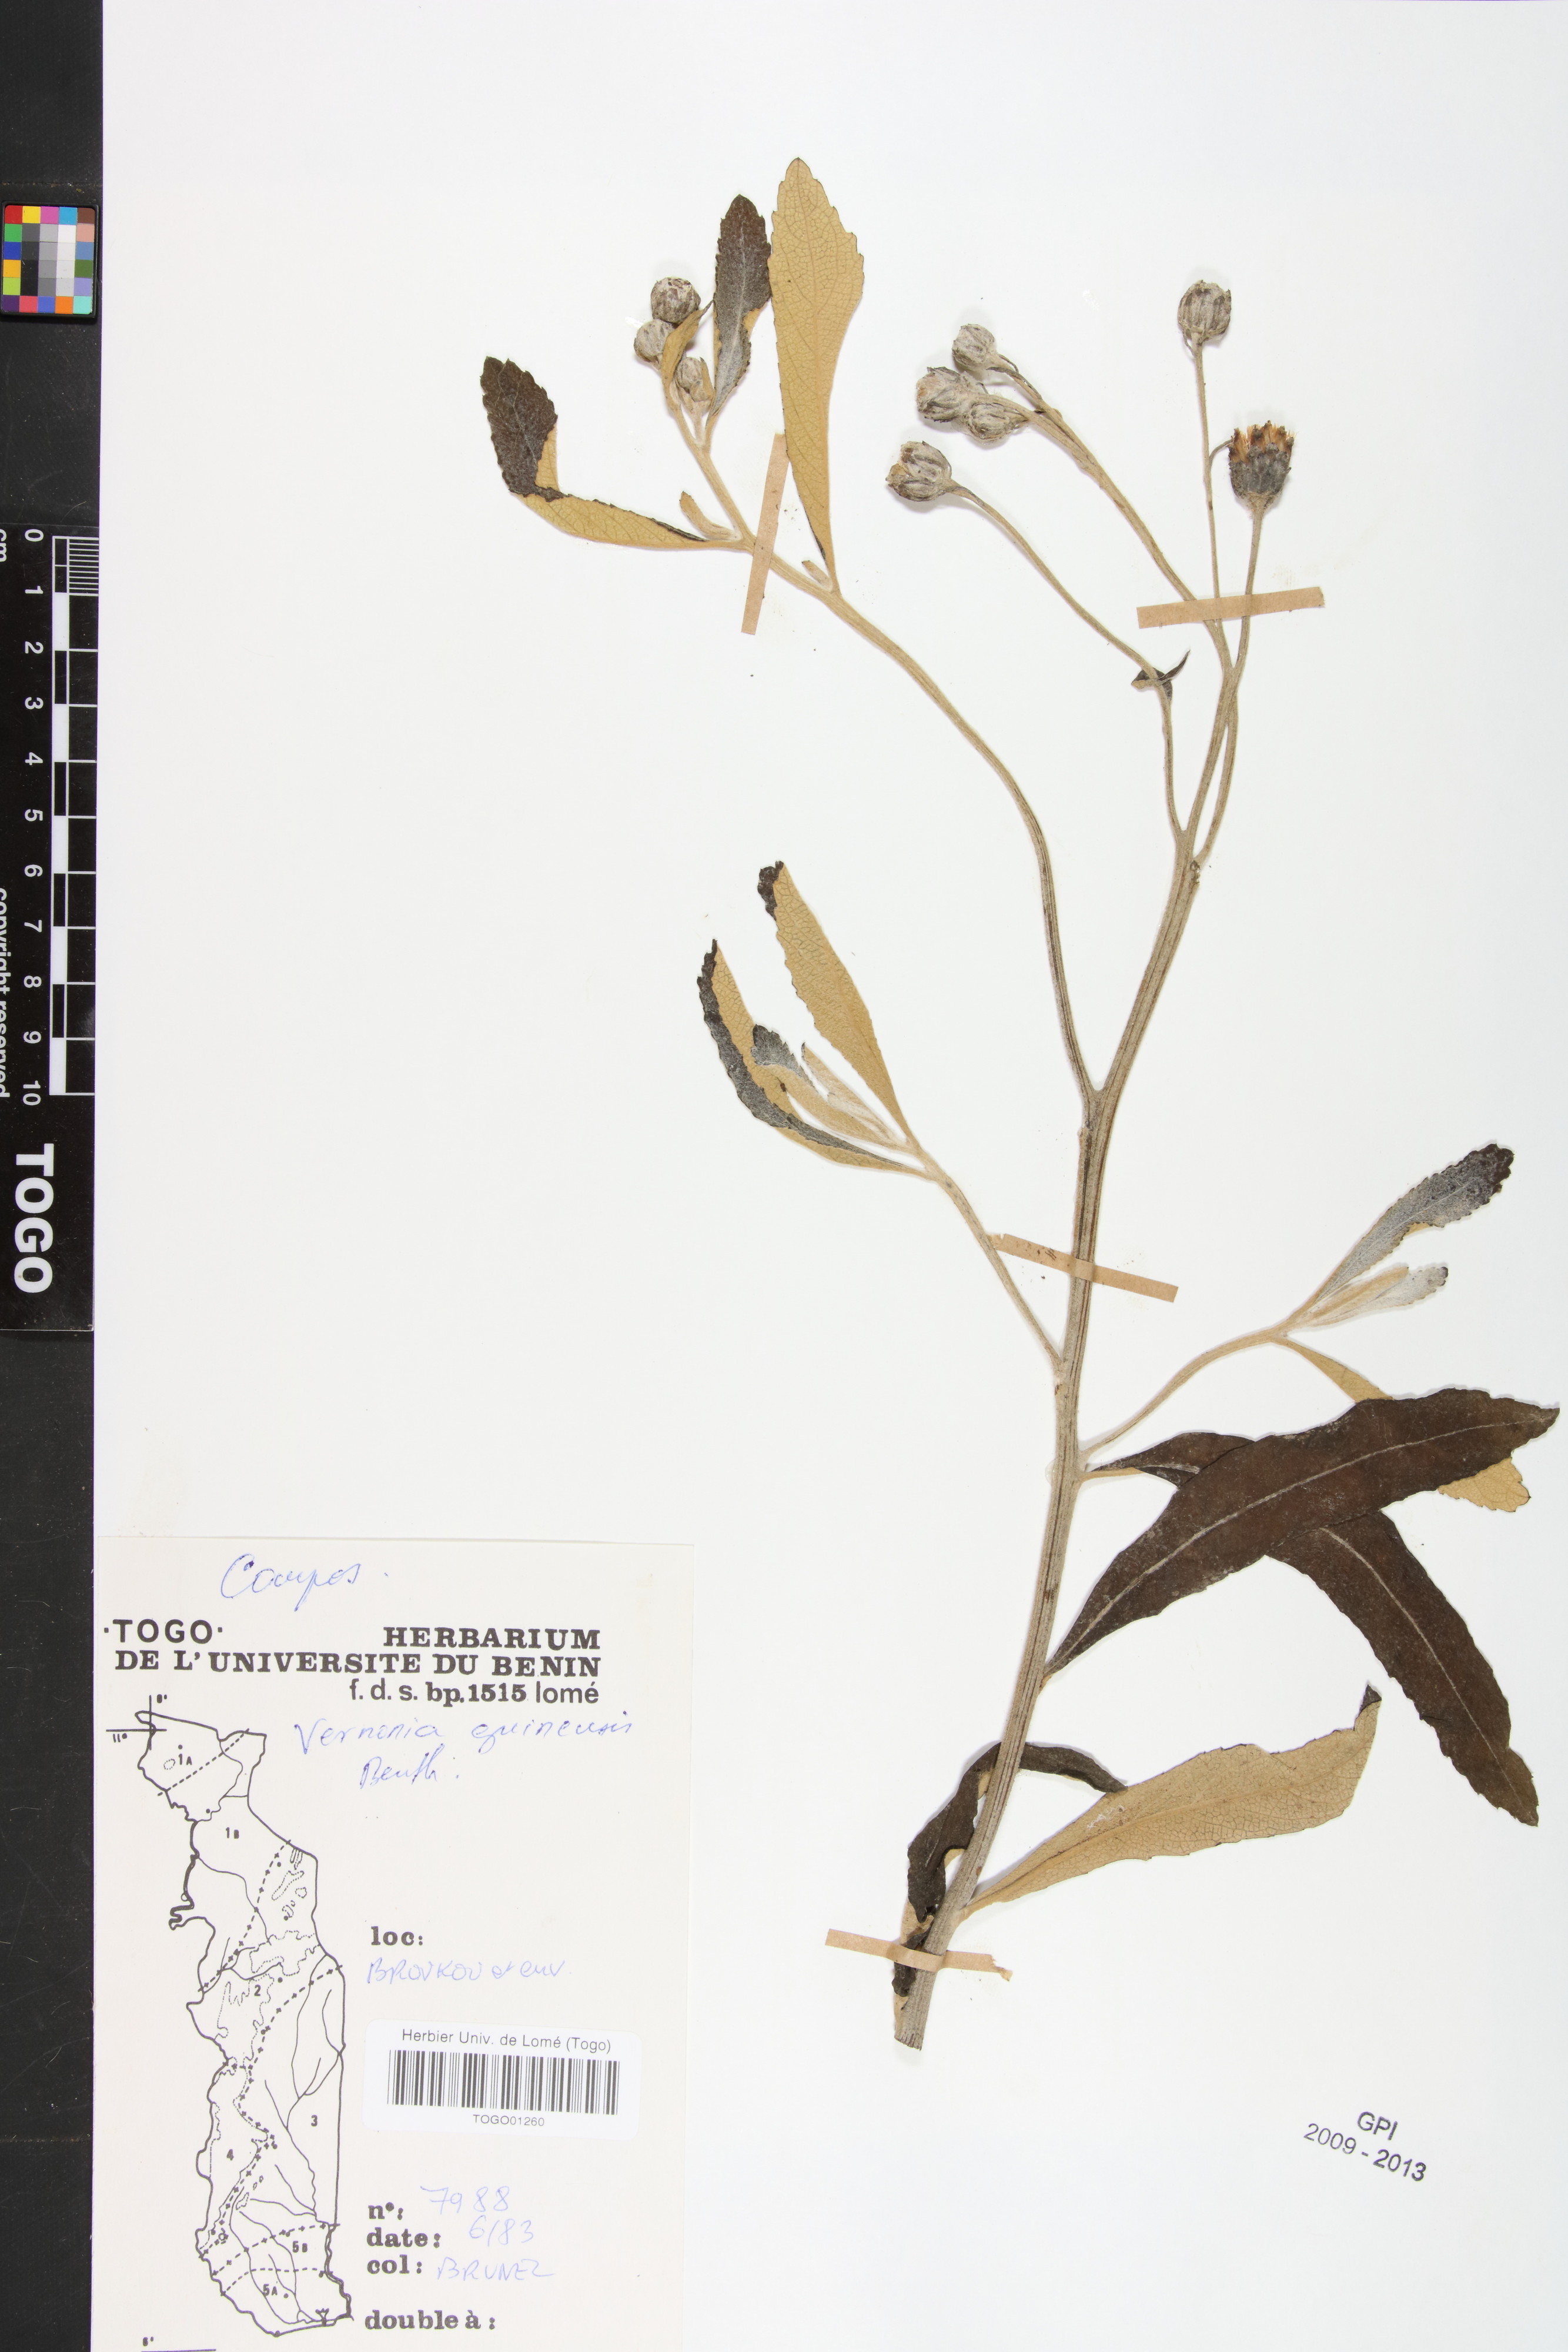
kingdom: Plantae
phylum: Tracheophyta
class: Magnoliopsida
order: Asterales
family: Asteraceae
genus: Baccharoides
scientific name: Baccharoides guineensis
